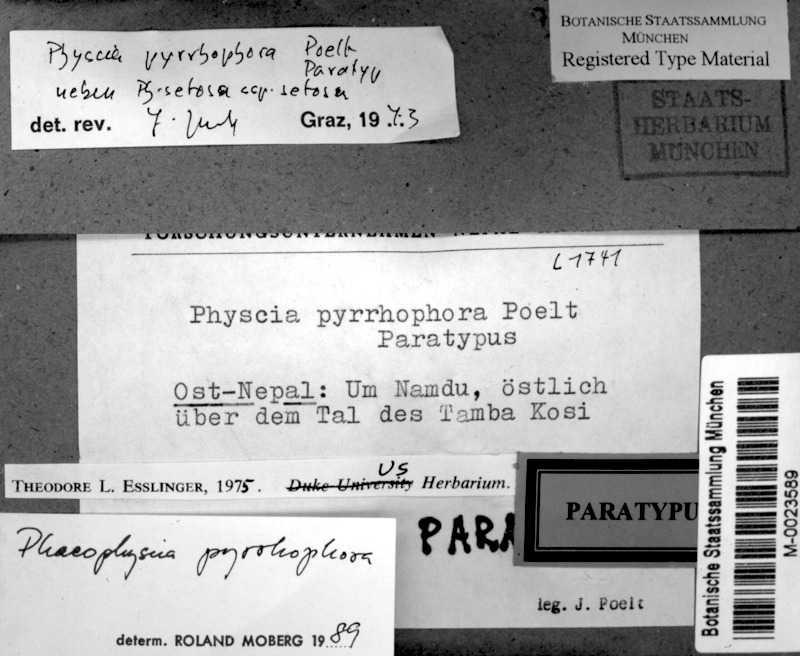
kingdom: Fungi
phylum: Ascomycota
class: Lecanoromycetes
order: Caliciales
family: Physciaceae
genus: Phaeophyscia
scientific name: Phaeophyscia pyrrhophora
